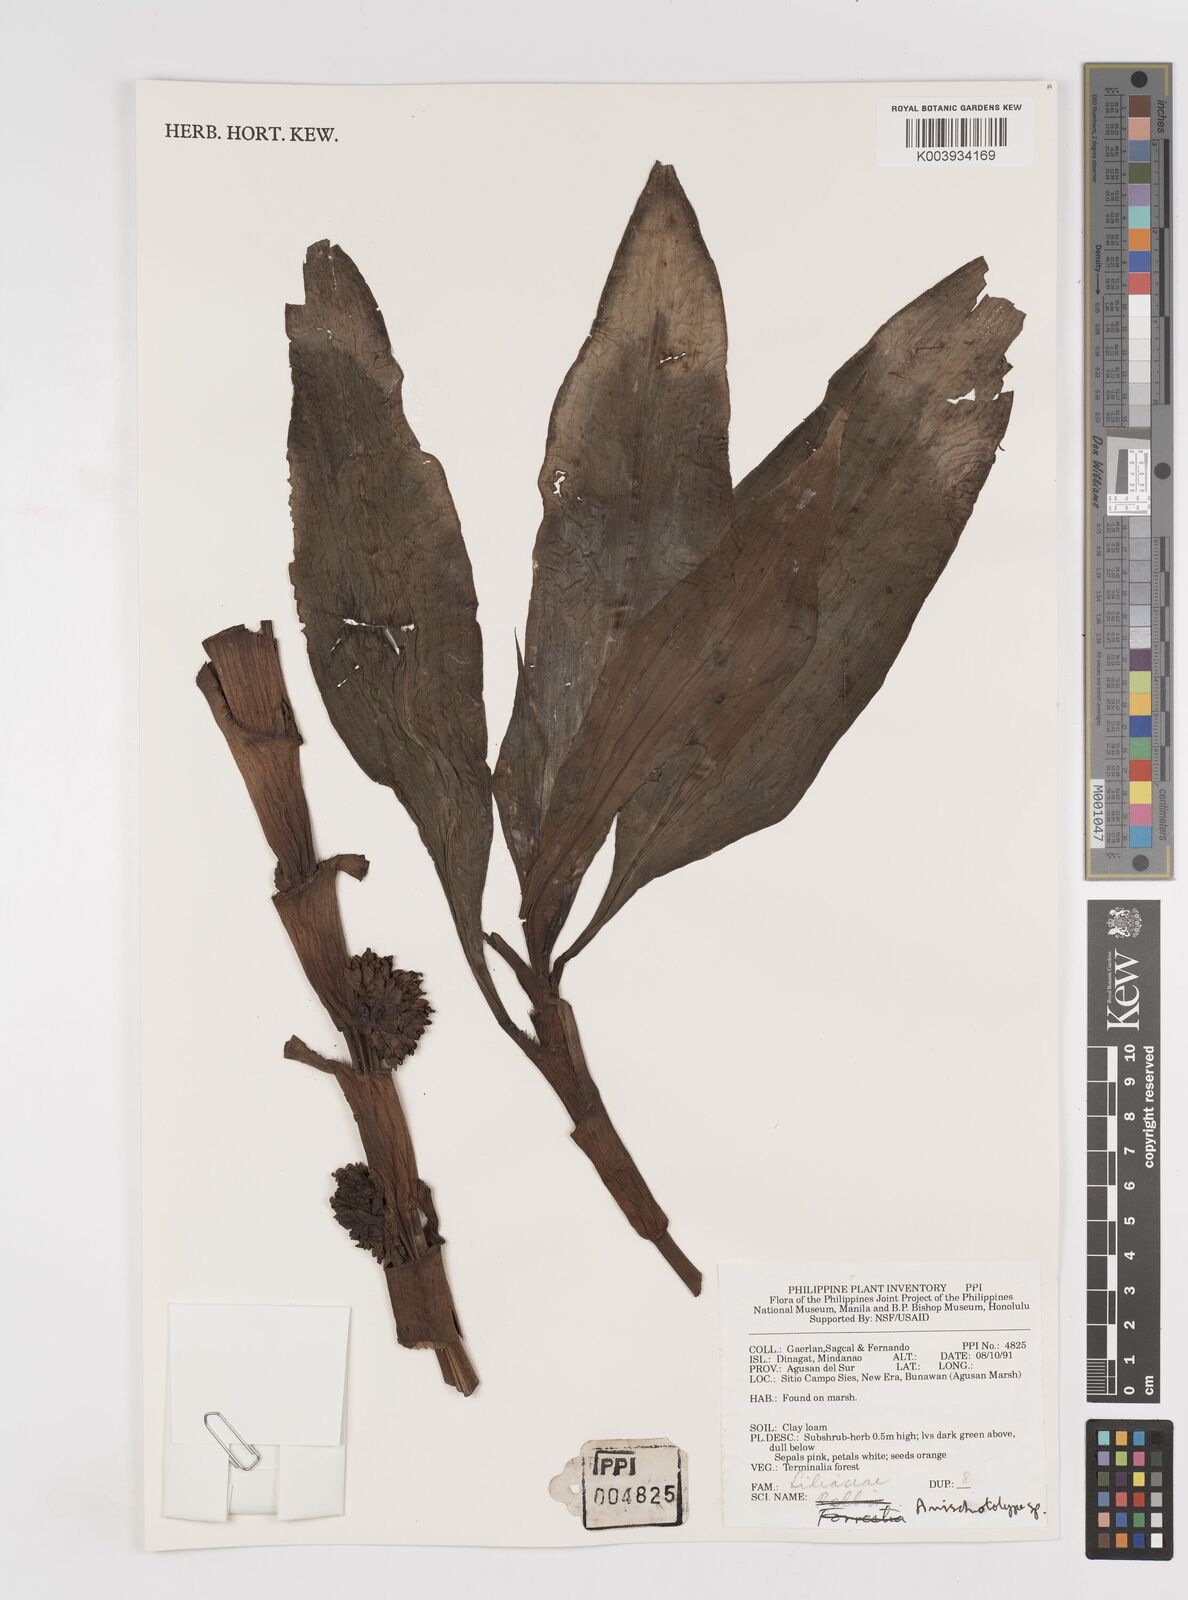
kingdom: Plantae
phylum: Tracheophyta
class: Liliopsida
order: Commelinales
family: Commelinaceae
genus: Amischotolype
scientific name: Amischotolype
